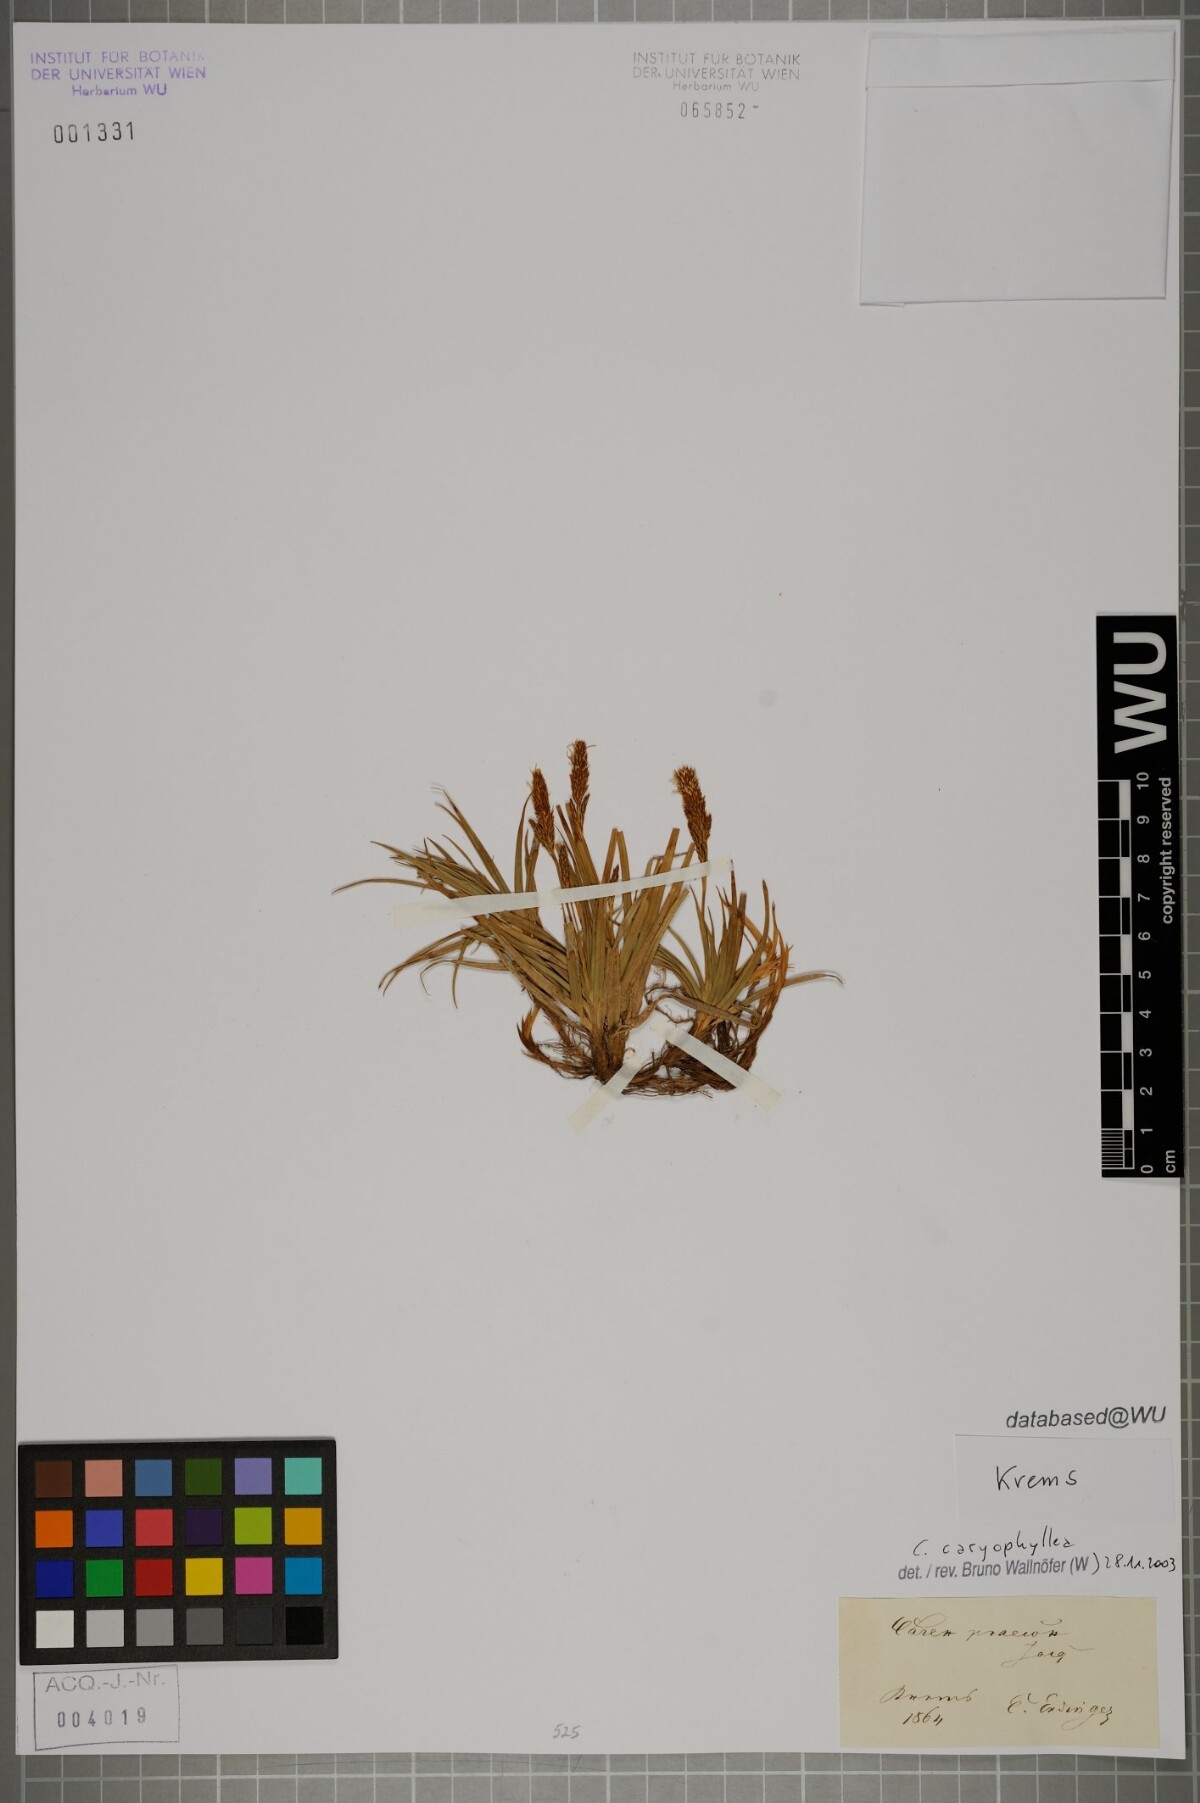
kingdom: Plantae
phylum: Tracheophyta
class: Liliopsida
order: Poales
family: Cyperaceae
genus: Carex
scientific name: Carex caryophyllea
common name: Spring sedge
